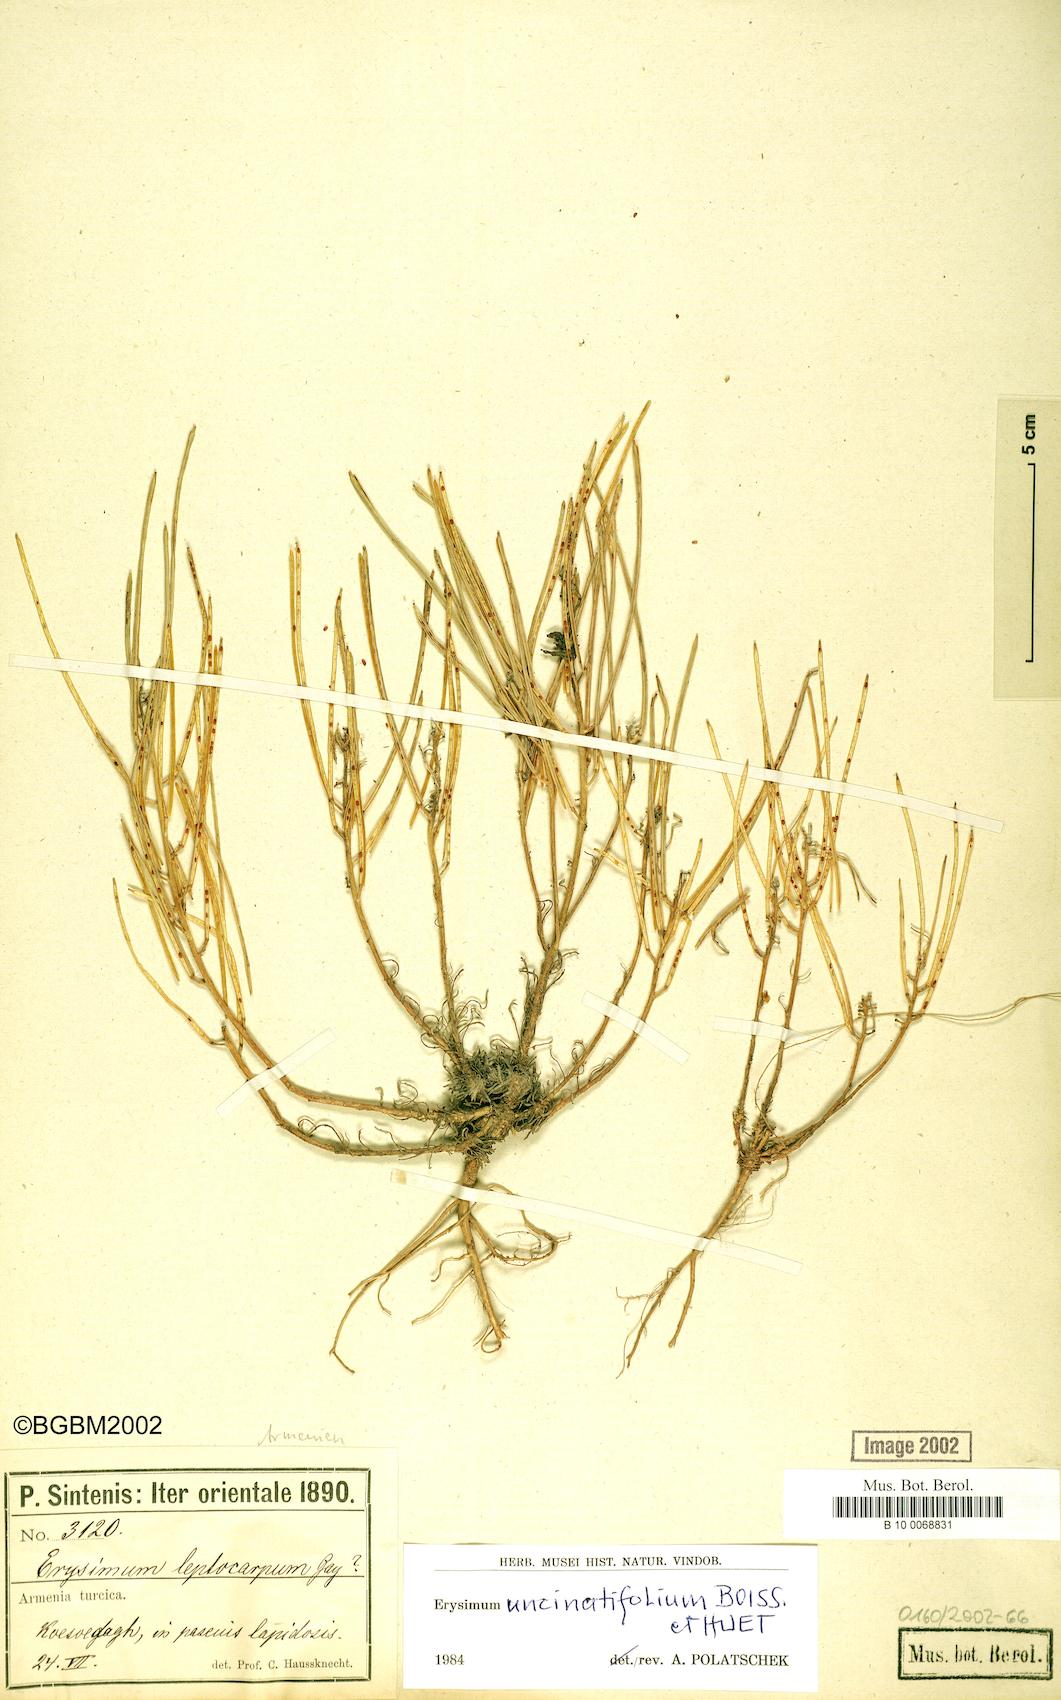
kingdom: Plantae
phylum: Tracheophyta
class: Magnoliopsida
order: Brassicales
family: Brassicaceae
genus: Erysimum
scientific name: Erysimum uncinatifolium
